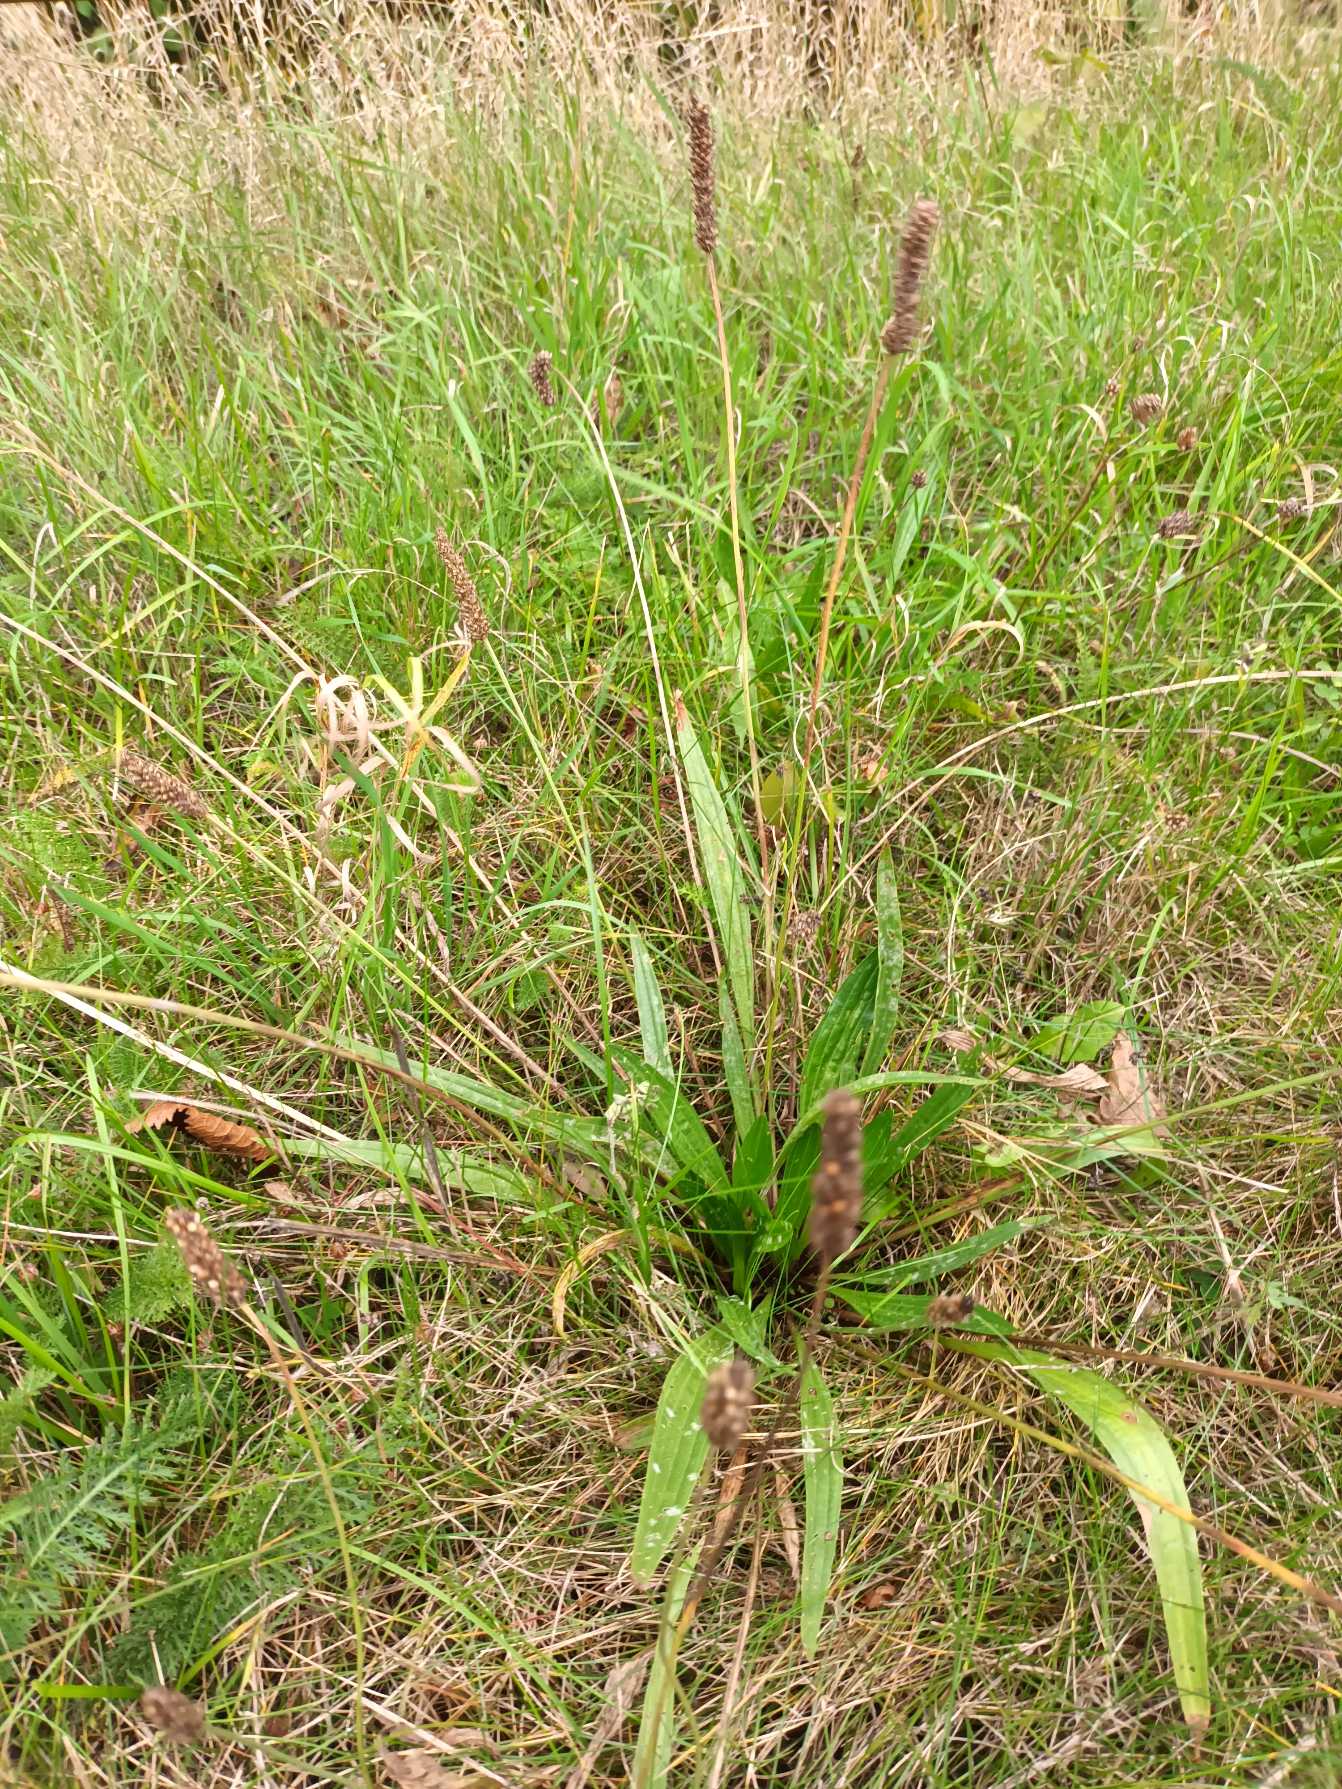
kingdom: Plantae
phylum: Tracheophyta
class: Magnoliopsida
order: Lamiales
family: Plantaginaceae
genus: Plantago
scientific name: Plantago lanceolata
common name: Lancet-vejbred
